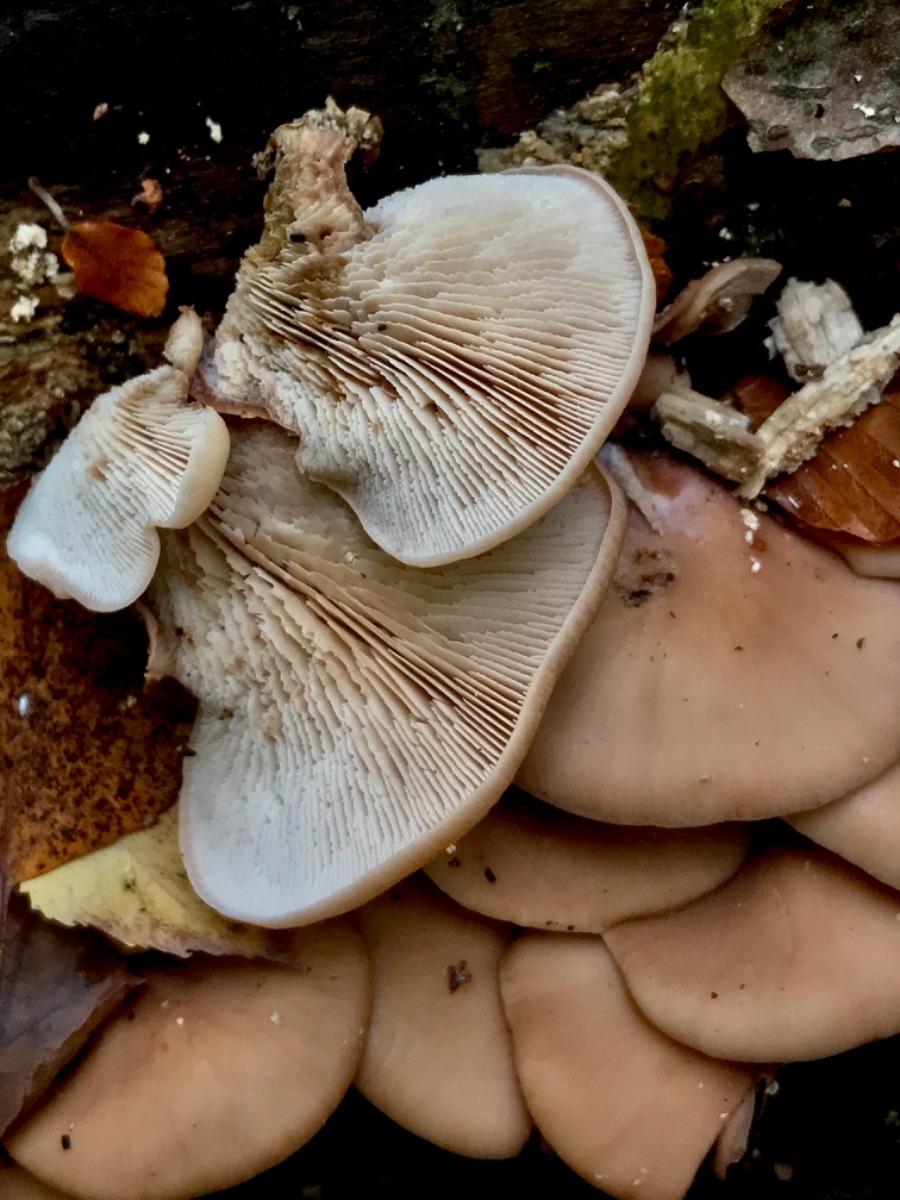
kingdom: Fungi
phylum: Basidiomycota
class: Agaricomycetes
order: Russulales
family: Auriscalpiaceae
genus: Lentinellus
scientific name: Lentinellus ursinus
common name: børstehåret savbladhat
